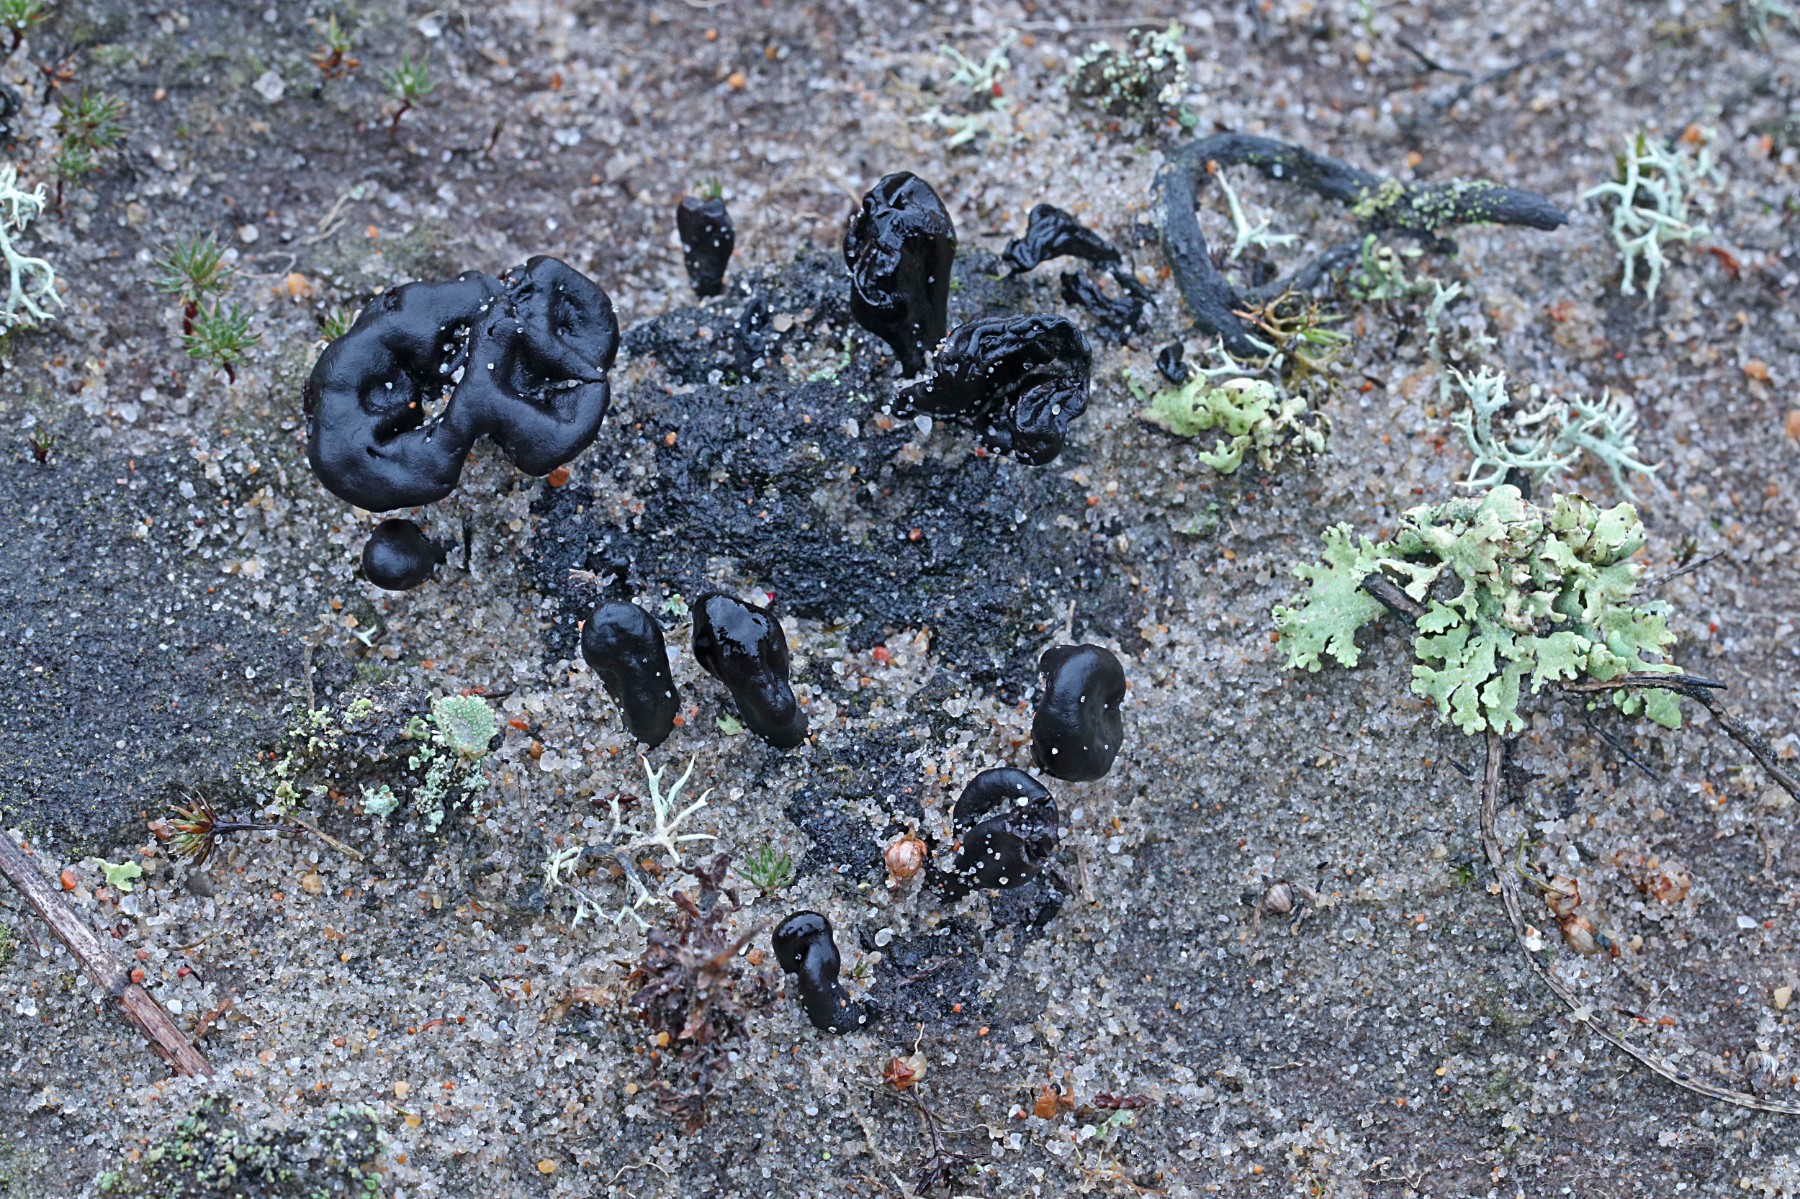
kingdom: Fungi
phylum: Ascomycota
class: Geoglossomycetes
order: Geoglossales
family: Geoglossaceae
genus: Sabuloglossum
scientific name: Sabuloglossum arenarium
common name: klit-jordtunge
